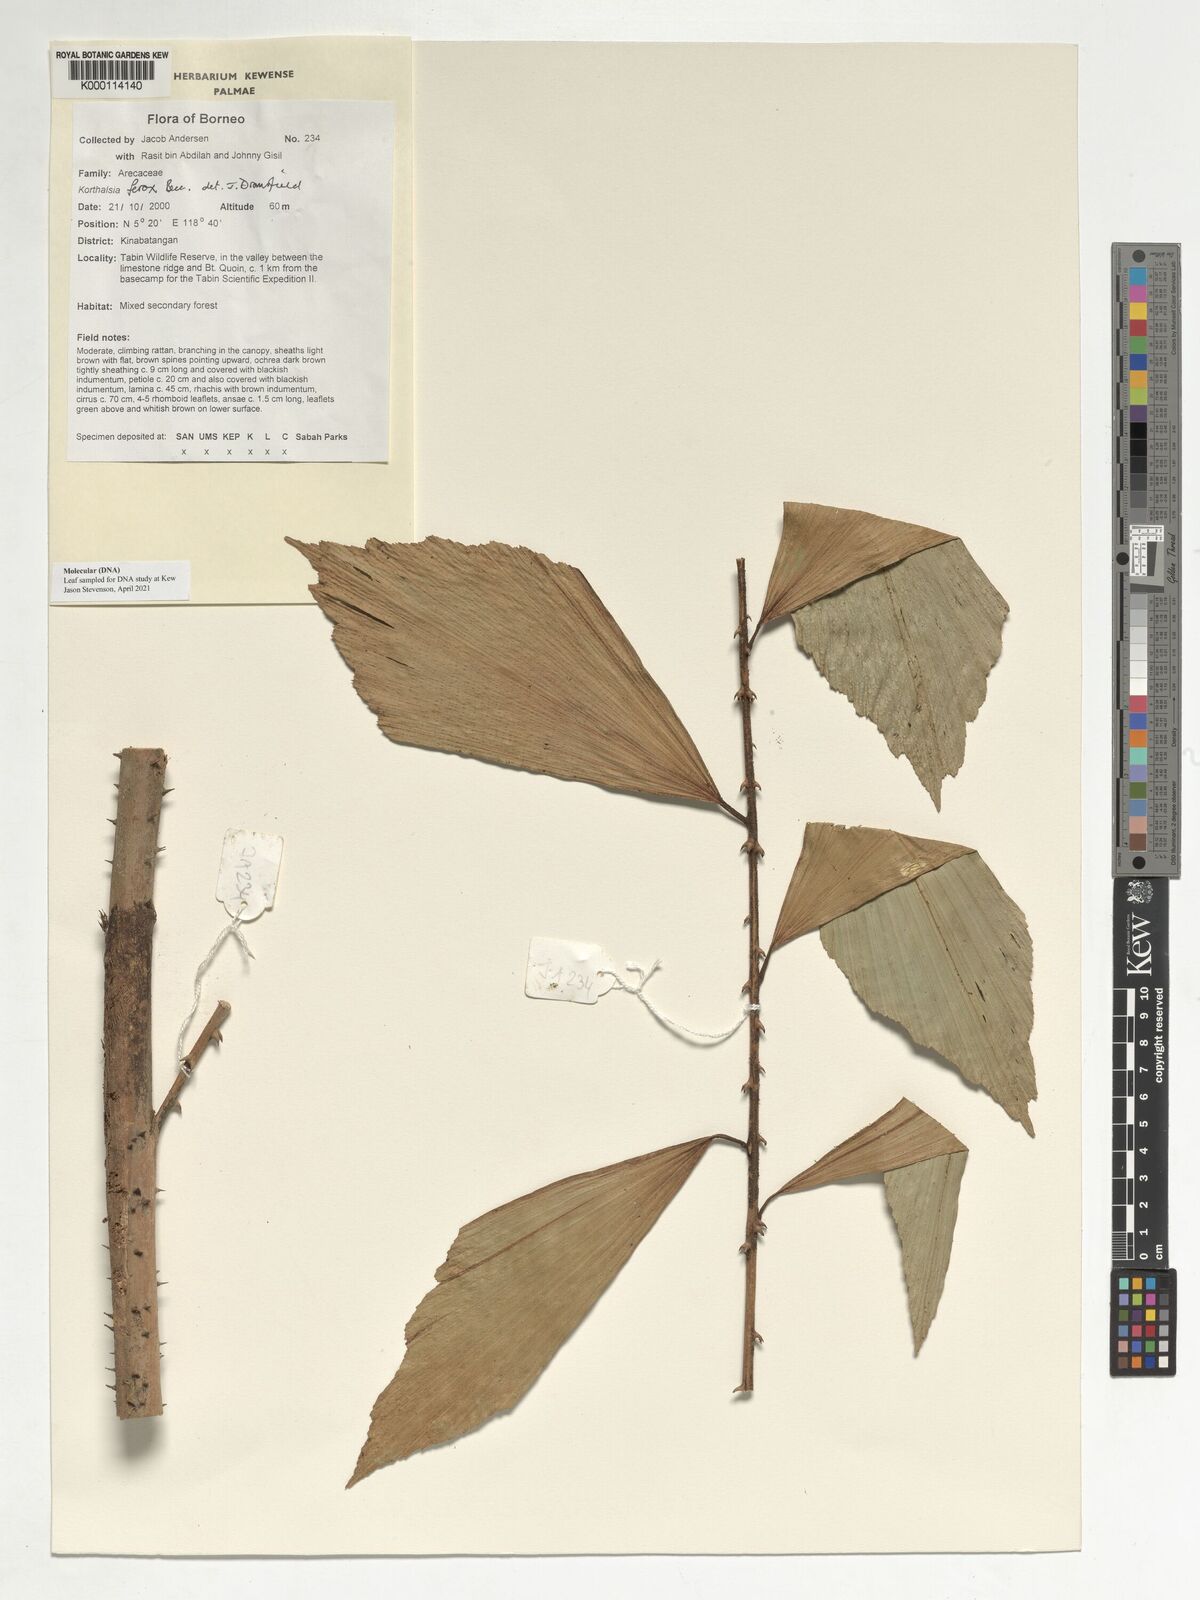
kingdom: Plantae
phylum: Tracheophyta
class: Liliopsida
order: Arecales
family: Arecaceae
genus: Korthalsia
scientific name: Korthalsia ferox
